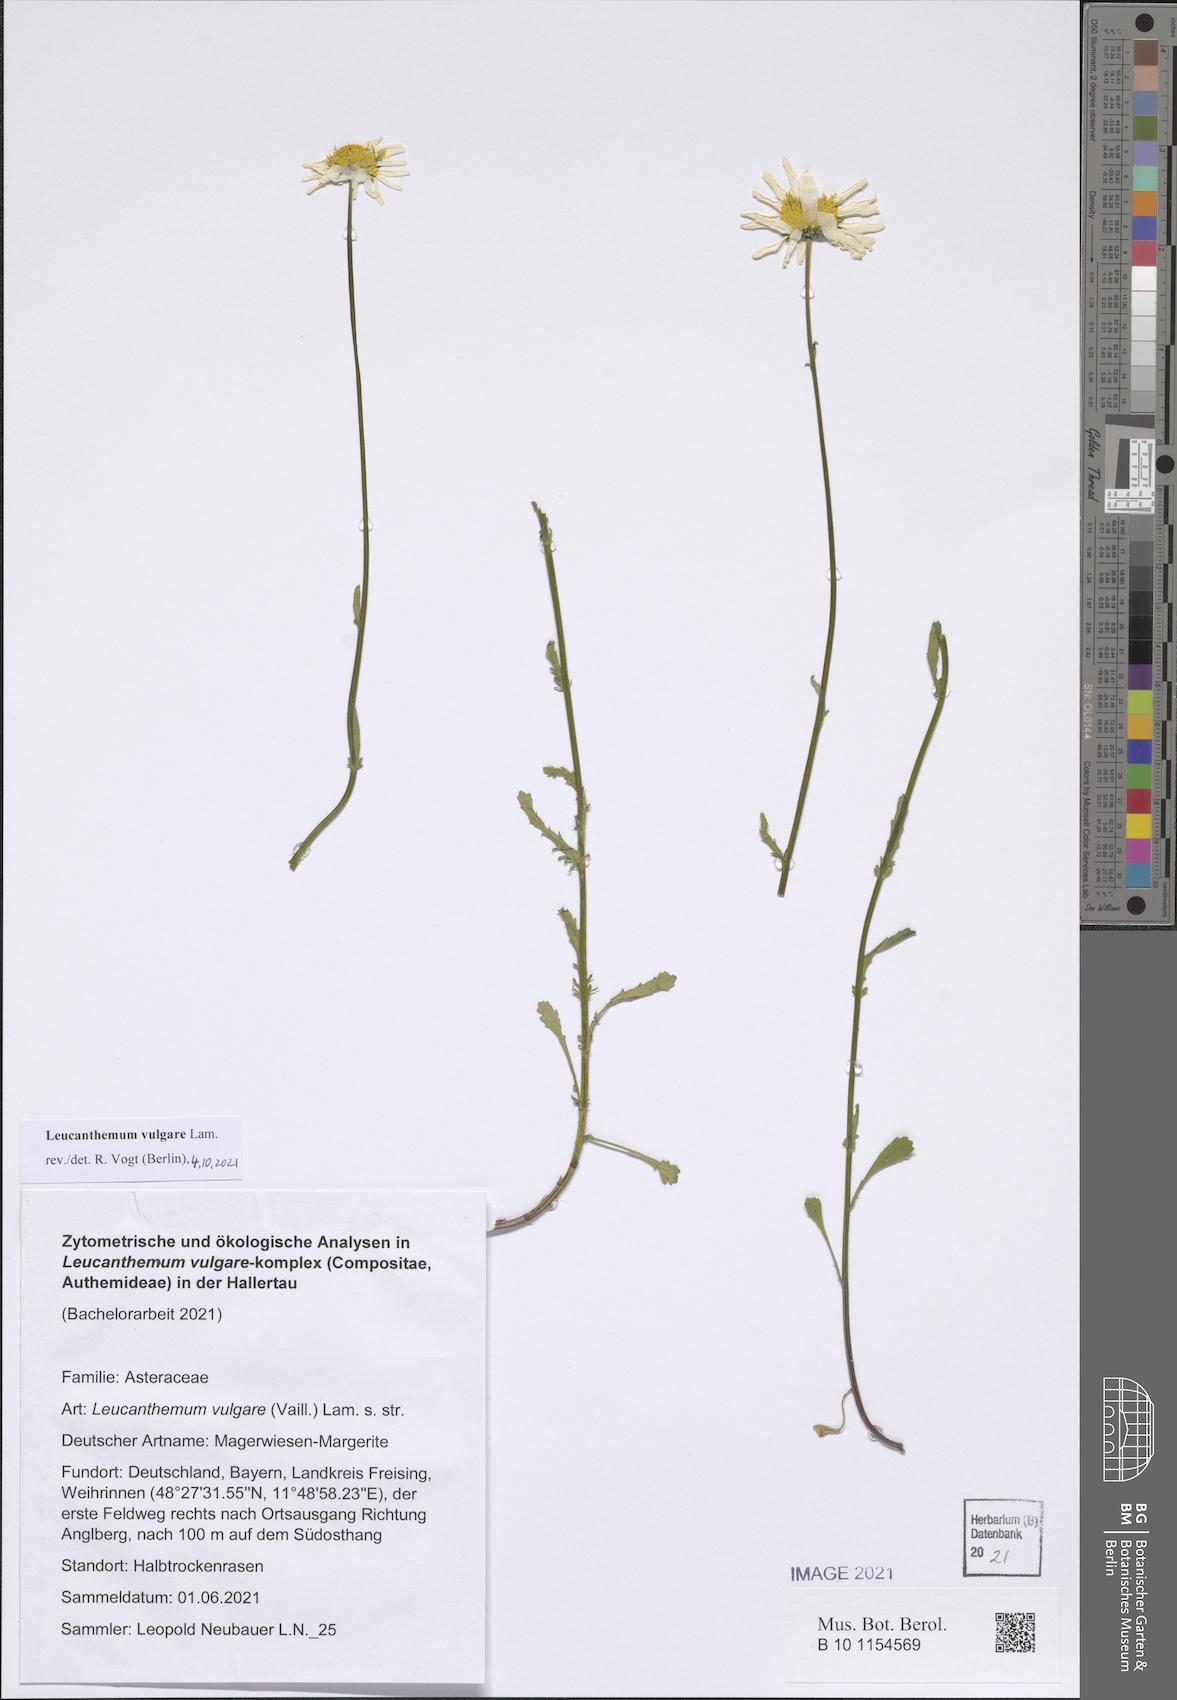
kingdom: Plantae
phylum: Tracheophyta
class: Magnoliopsida
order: Asterales
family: Asteraceae
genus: Leucanthemum
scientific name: Leucanthemum vulgare
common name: Oxeye daisy
